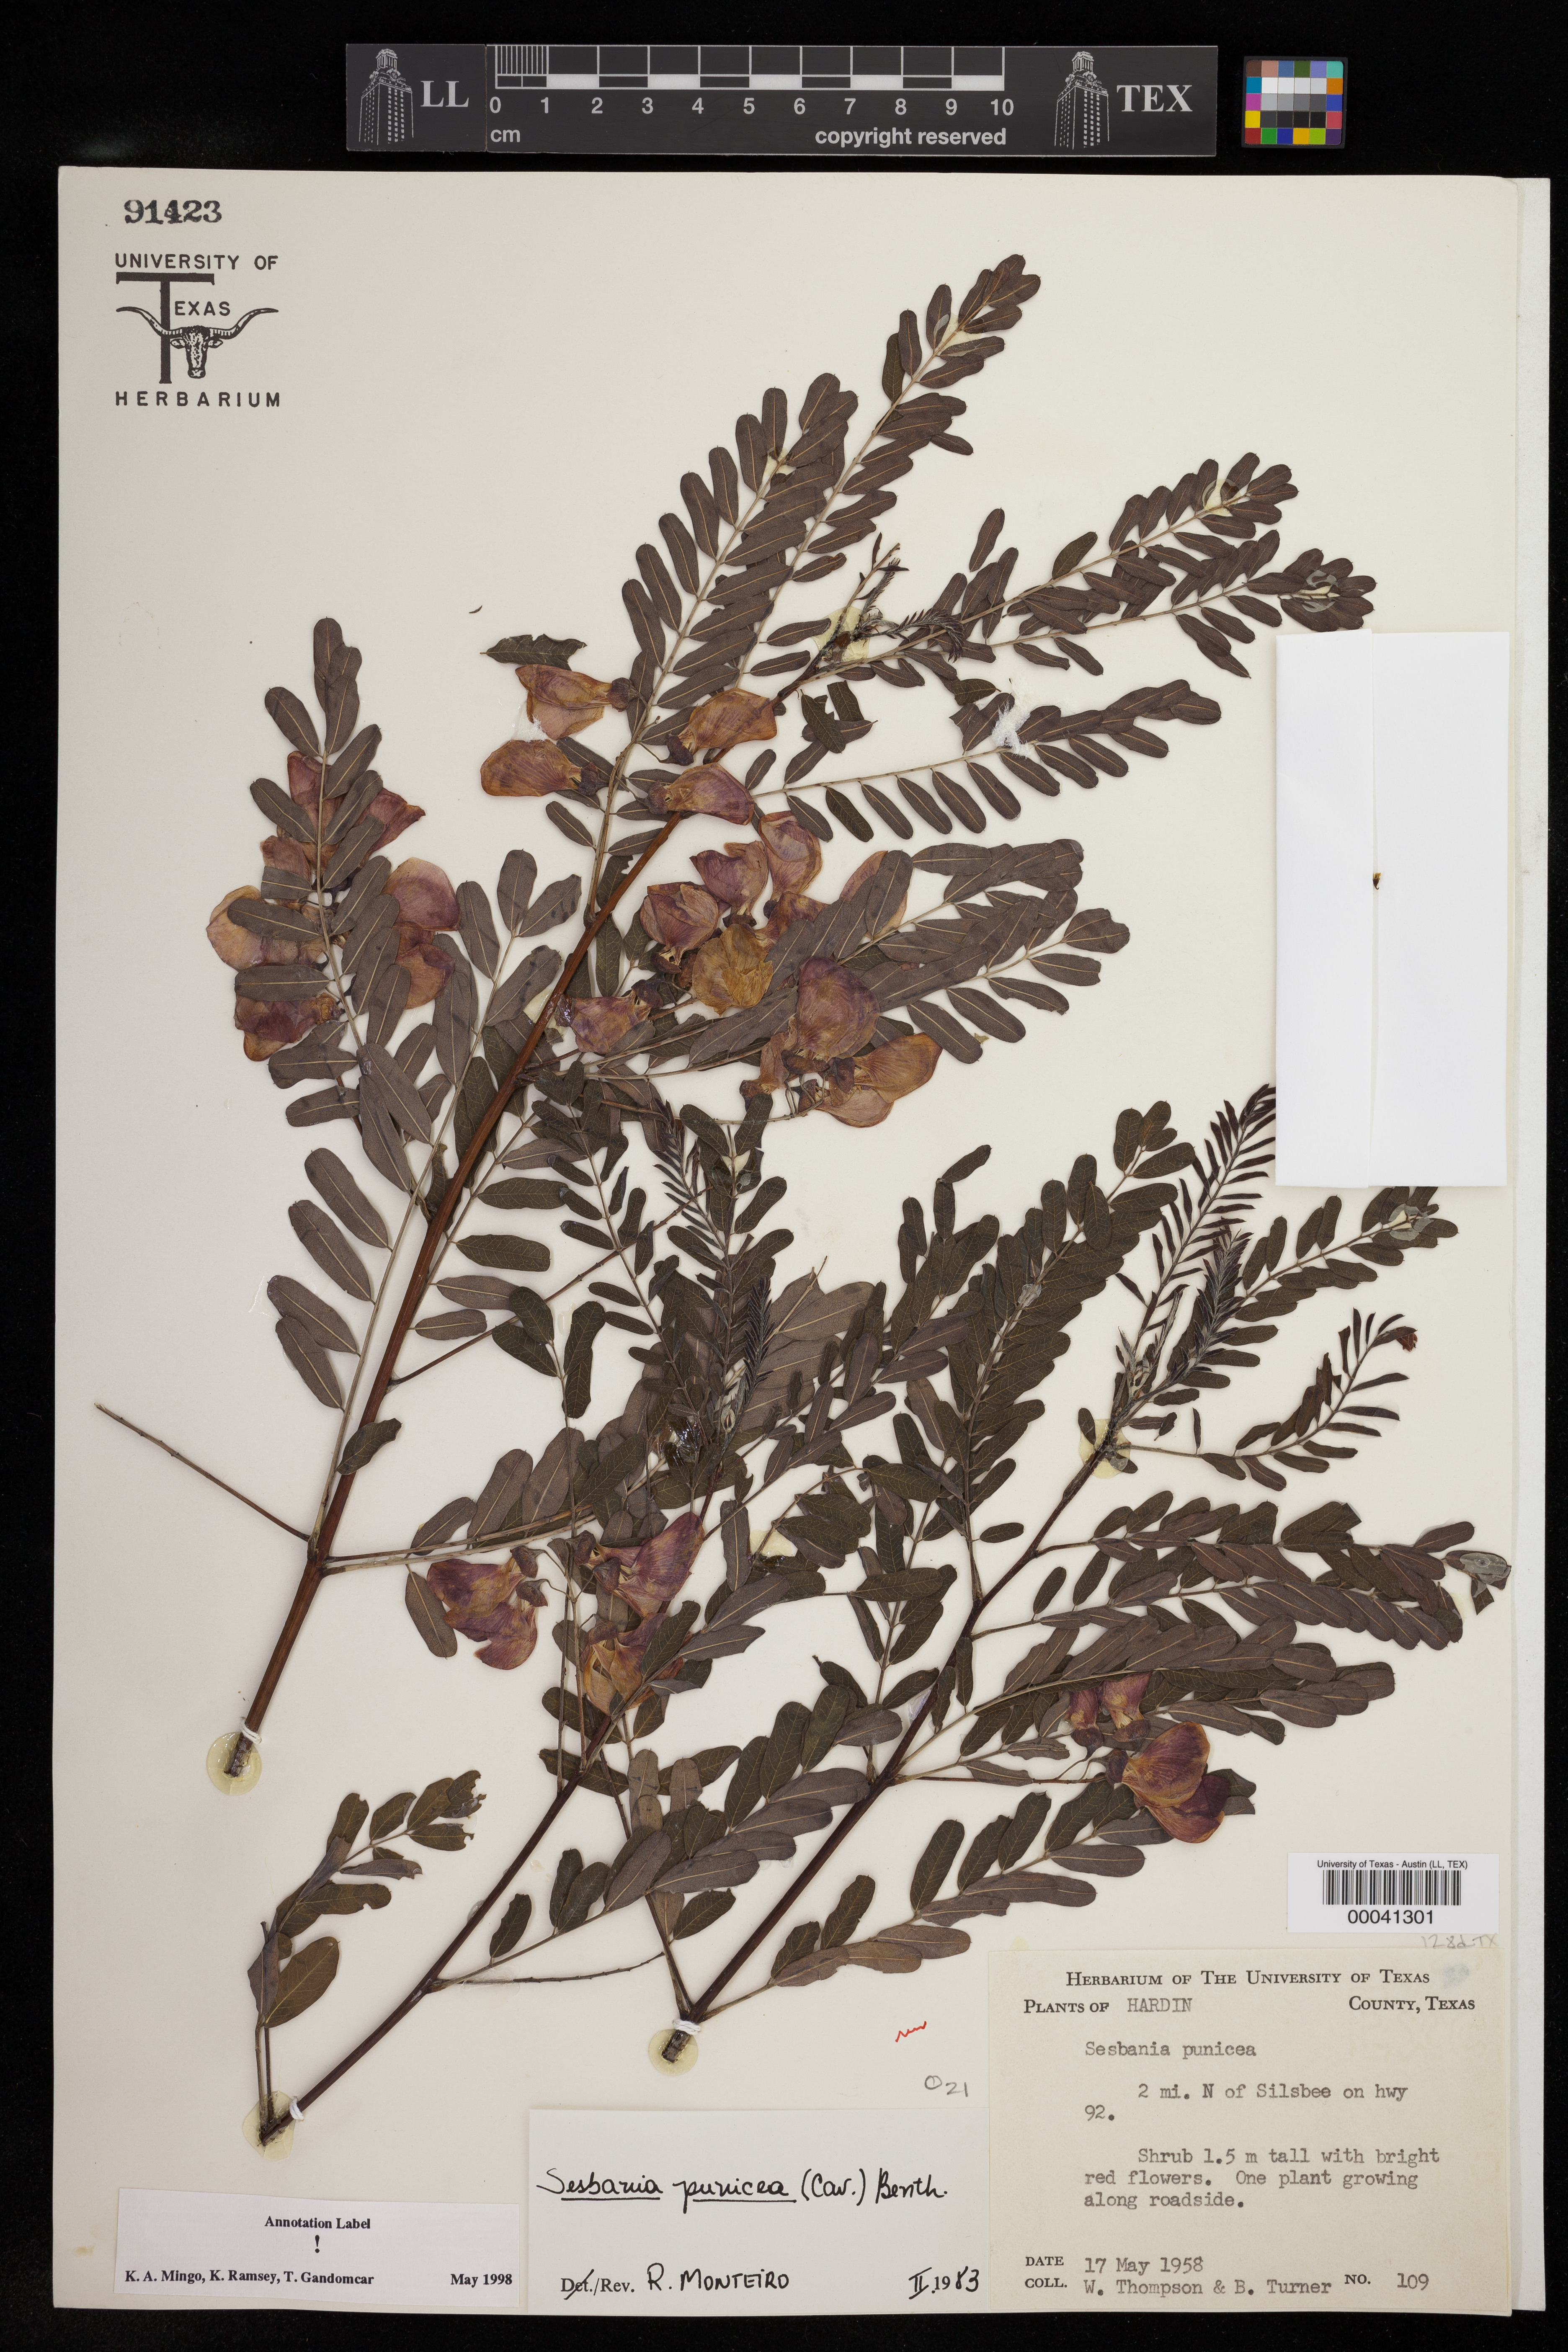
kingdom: Plantae
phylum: Tracheophyta
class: Magnoliopsida
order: Fabales
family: Fabaceae
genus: Sesbania
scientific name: Sesbania punicea
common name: Rattlebox
